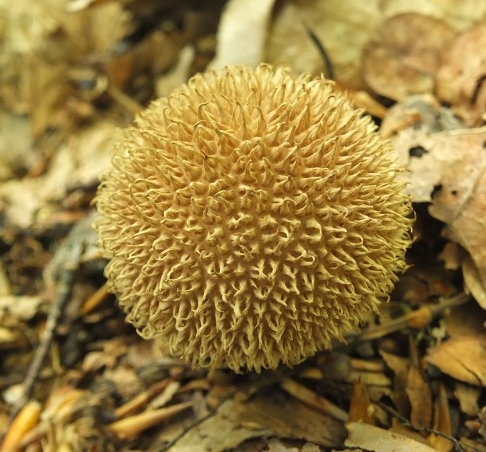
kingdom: Fungi
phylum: Basidiomycota
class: Agaricomycetes
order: Agaricales
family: Lycoperdaceae
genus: Lycoperdon
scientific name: Lycoperdon echinatum
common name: pindsvine-støvbold
